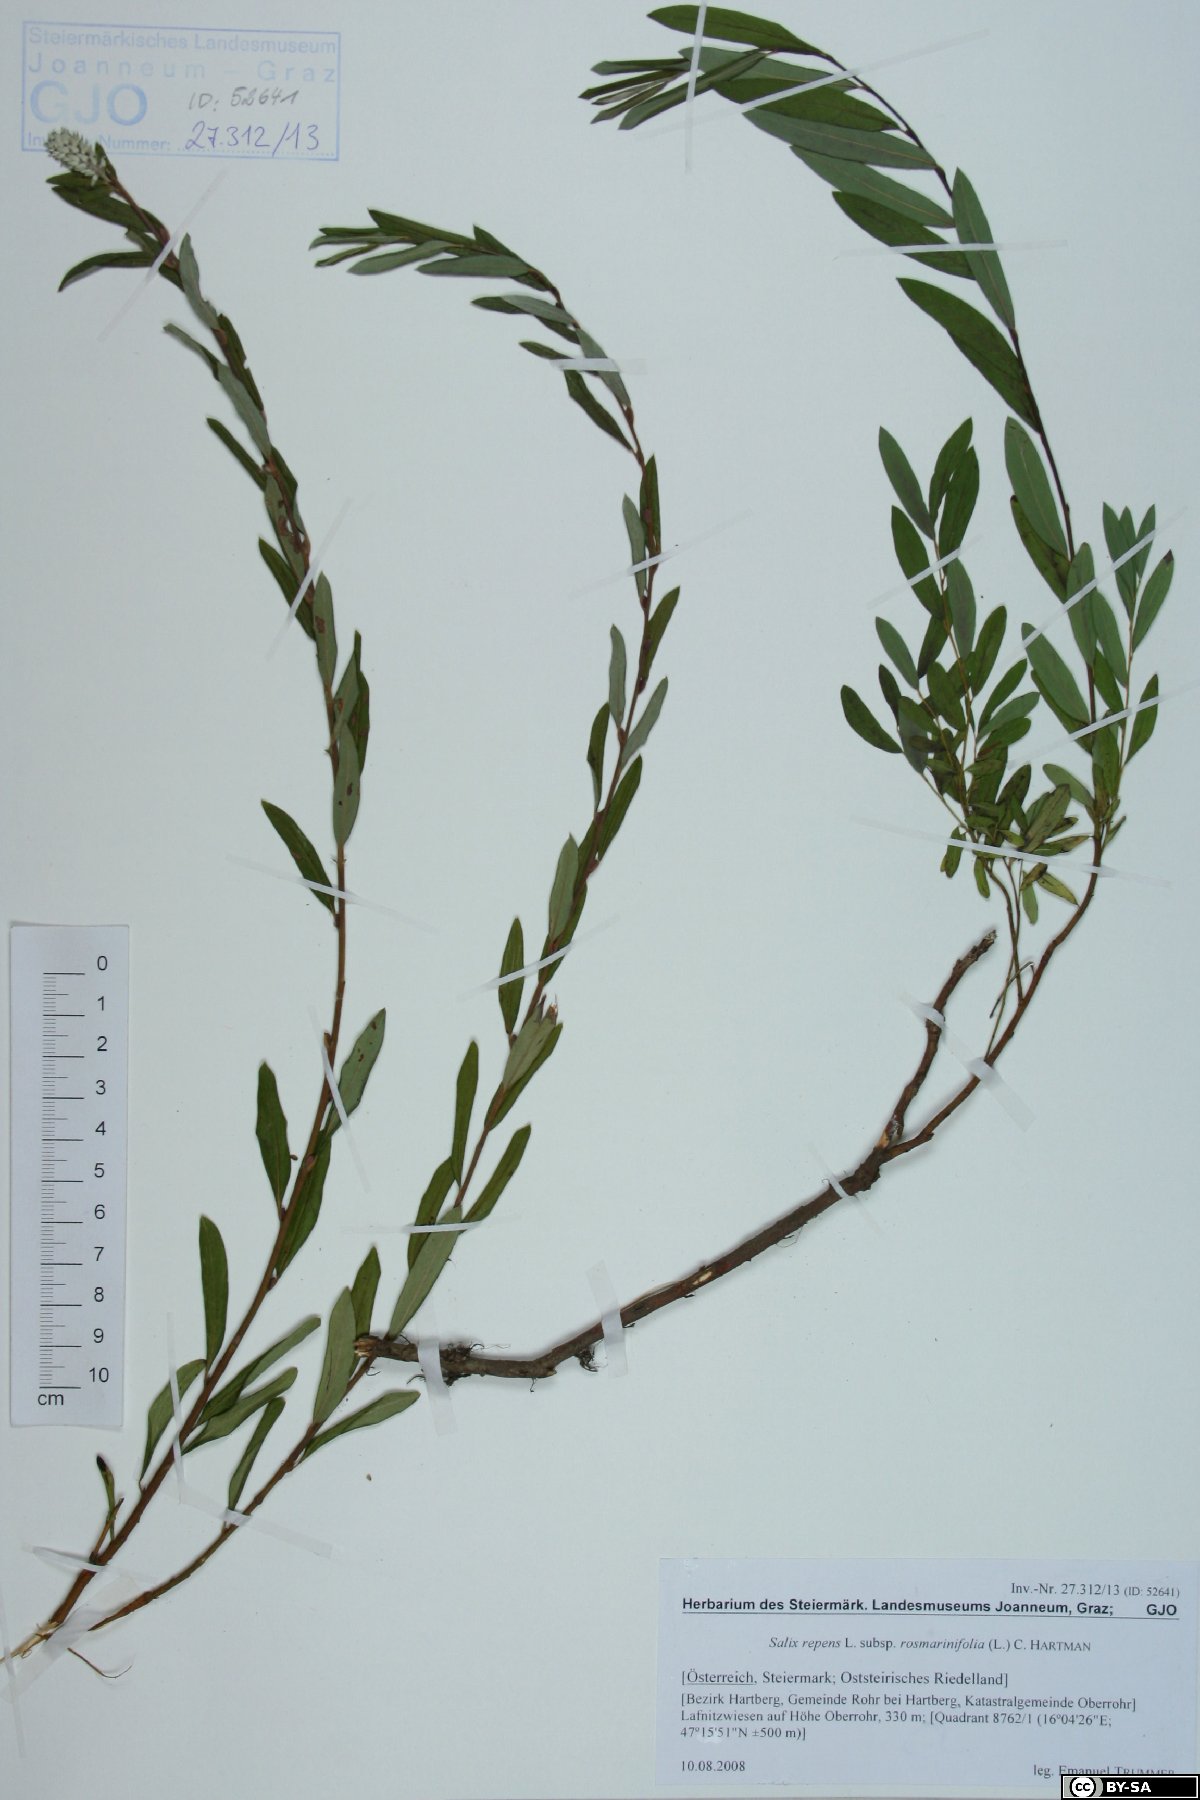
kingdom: Plantae
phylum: Tracheophyta
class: Magnoliopsida
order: Malpighiales
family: Salicaceae
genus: Salix
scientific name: Salix repens
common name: Creeping willow
